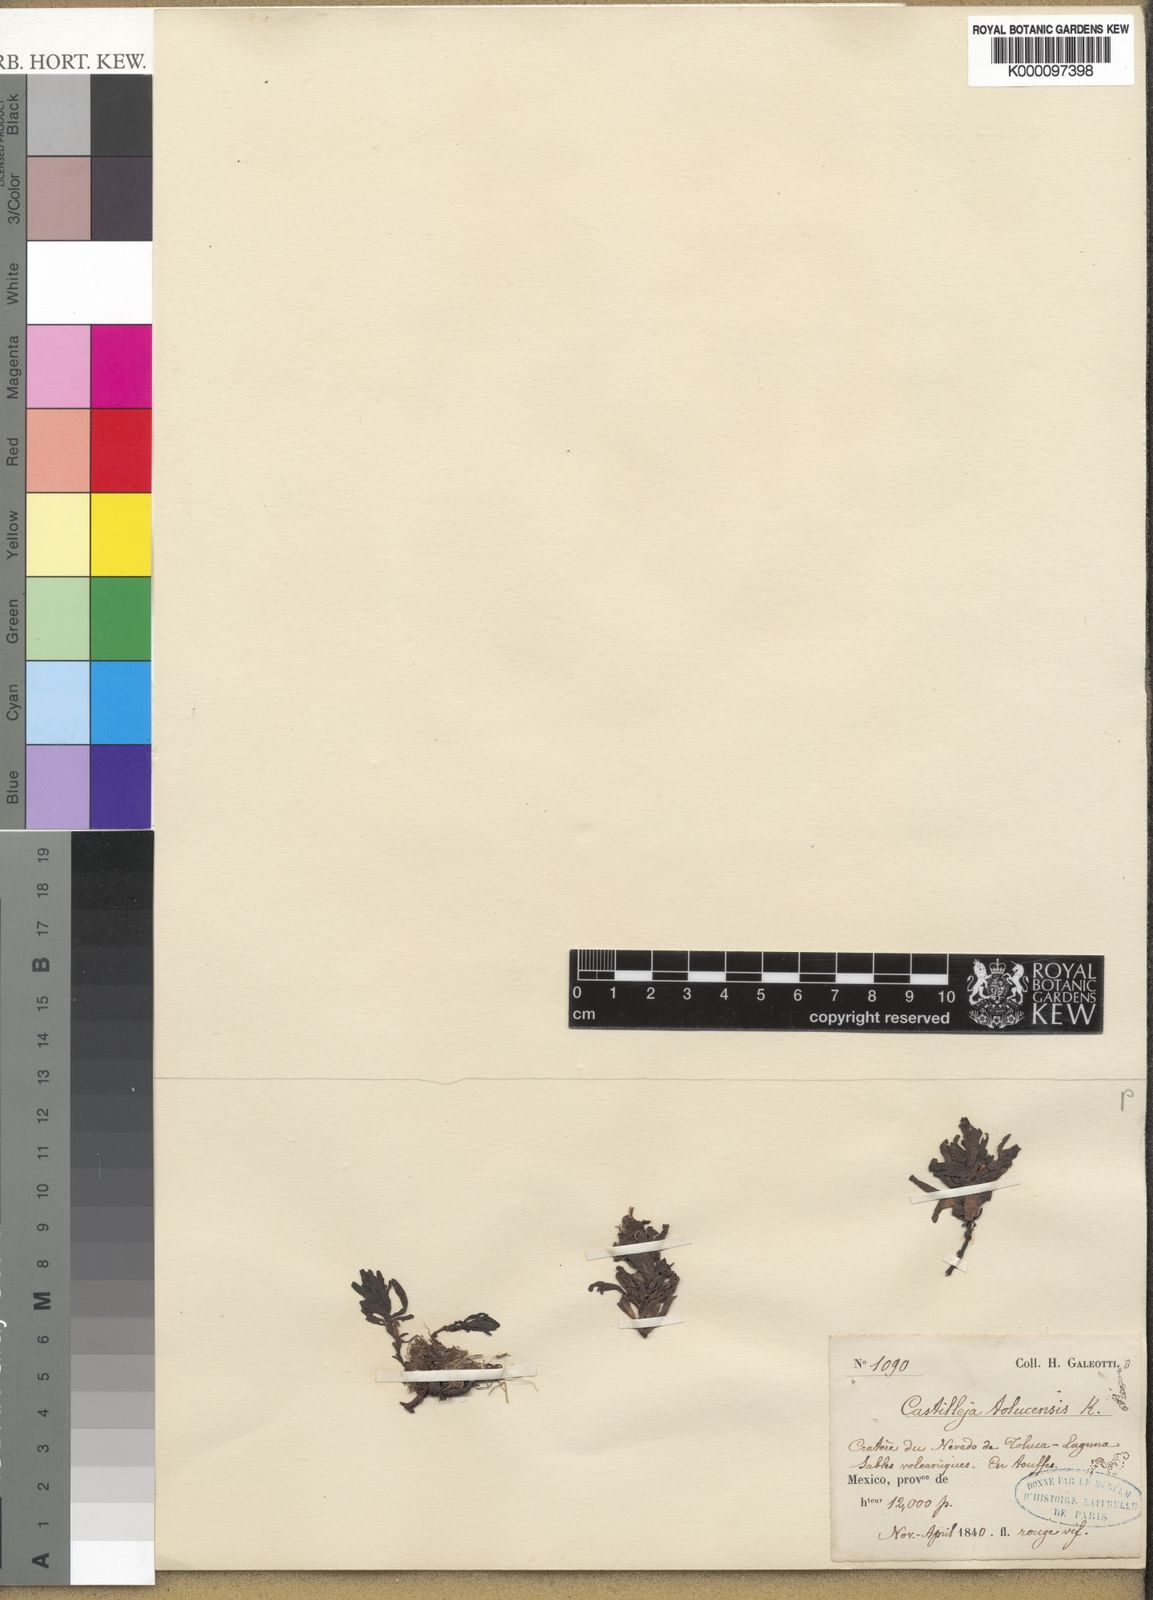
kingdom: Plantae
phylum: Tracheophyta
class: Magnoliopsida
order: Lamiales
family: Orobanchaceae
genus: Castilleja
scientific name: Castilleja tolucensis
